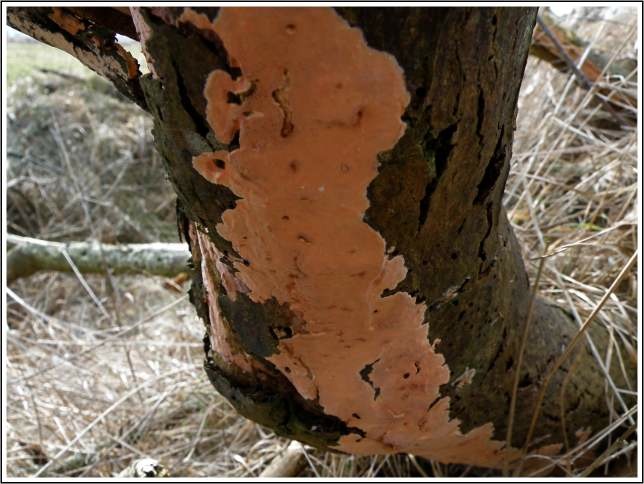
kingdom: Fungi
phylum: Basidiomycota
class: Agaricomycetes
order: Russulales
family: Peniophoraceae
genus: Peniophora
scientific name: Peniophora incarnata
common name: laksefarvet voksskind
